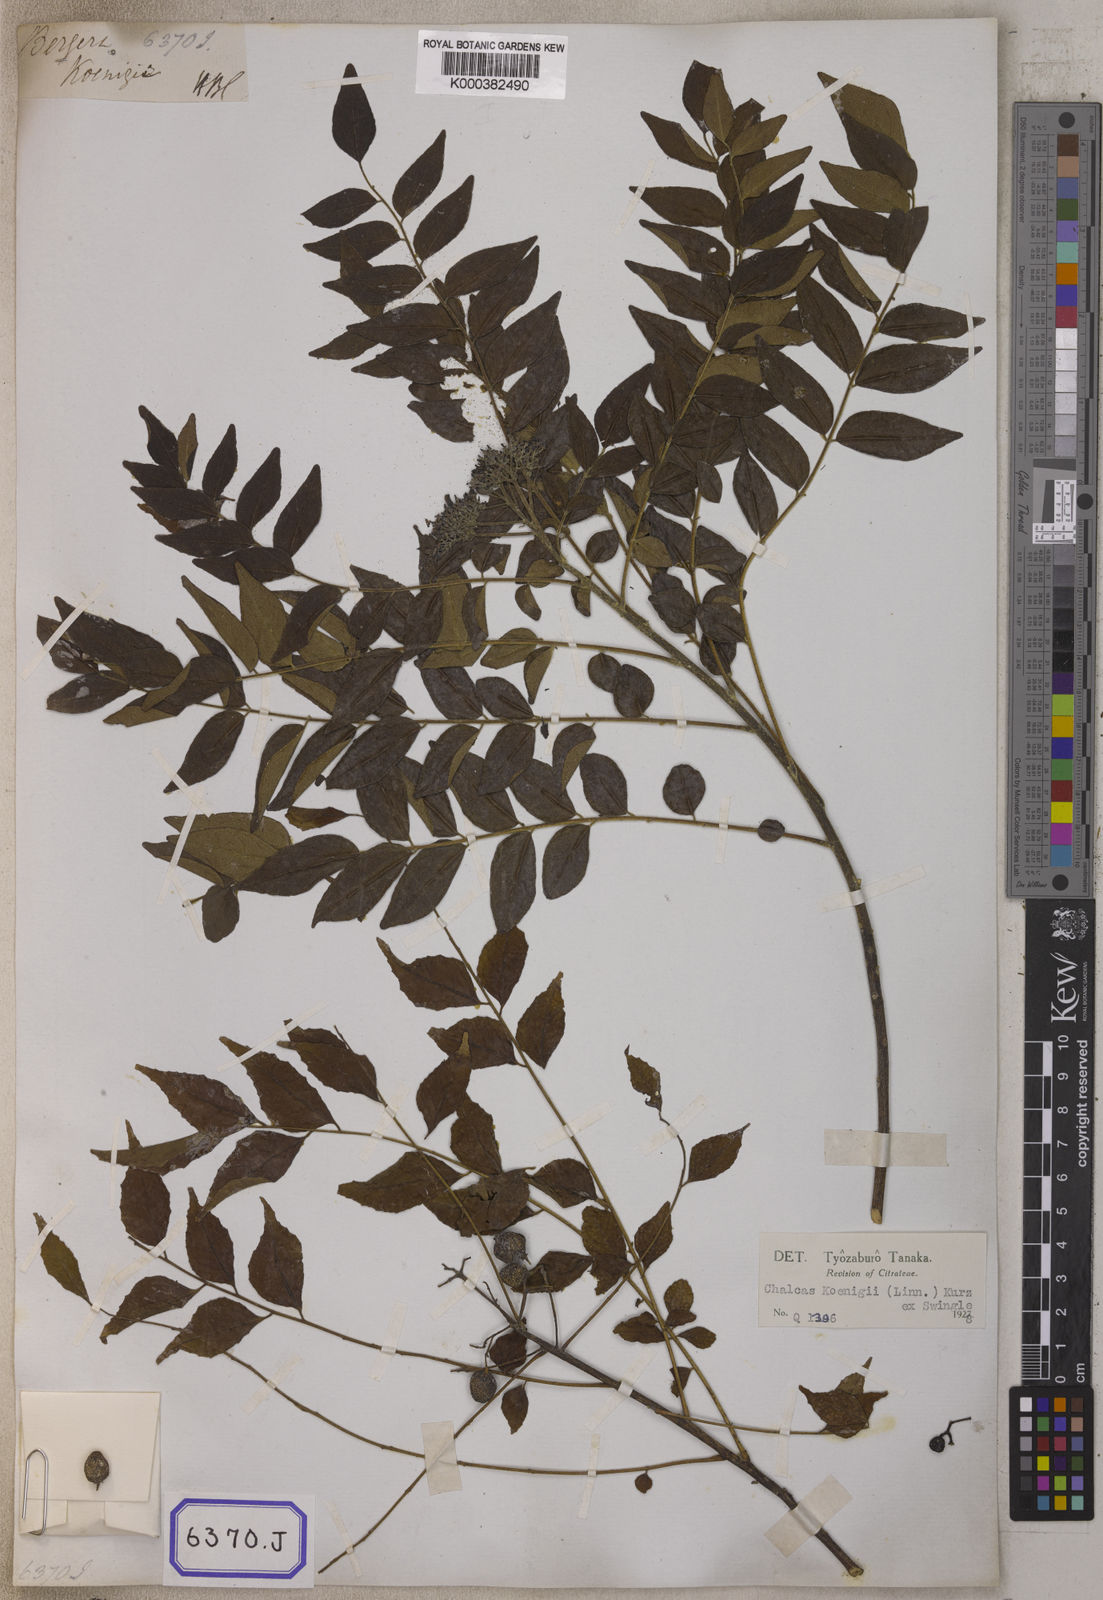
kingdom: Plantae
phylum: Tracheophyta
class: Magnoliopsida
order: Sapindales
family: Rutaceae
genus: Murraya
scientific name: Murraya koenigii
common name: Curry-plant
